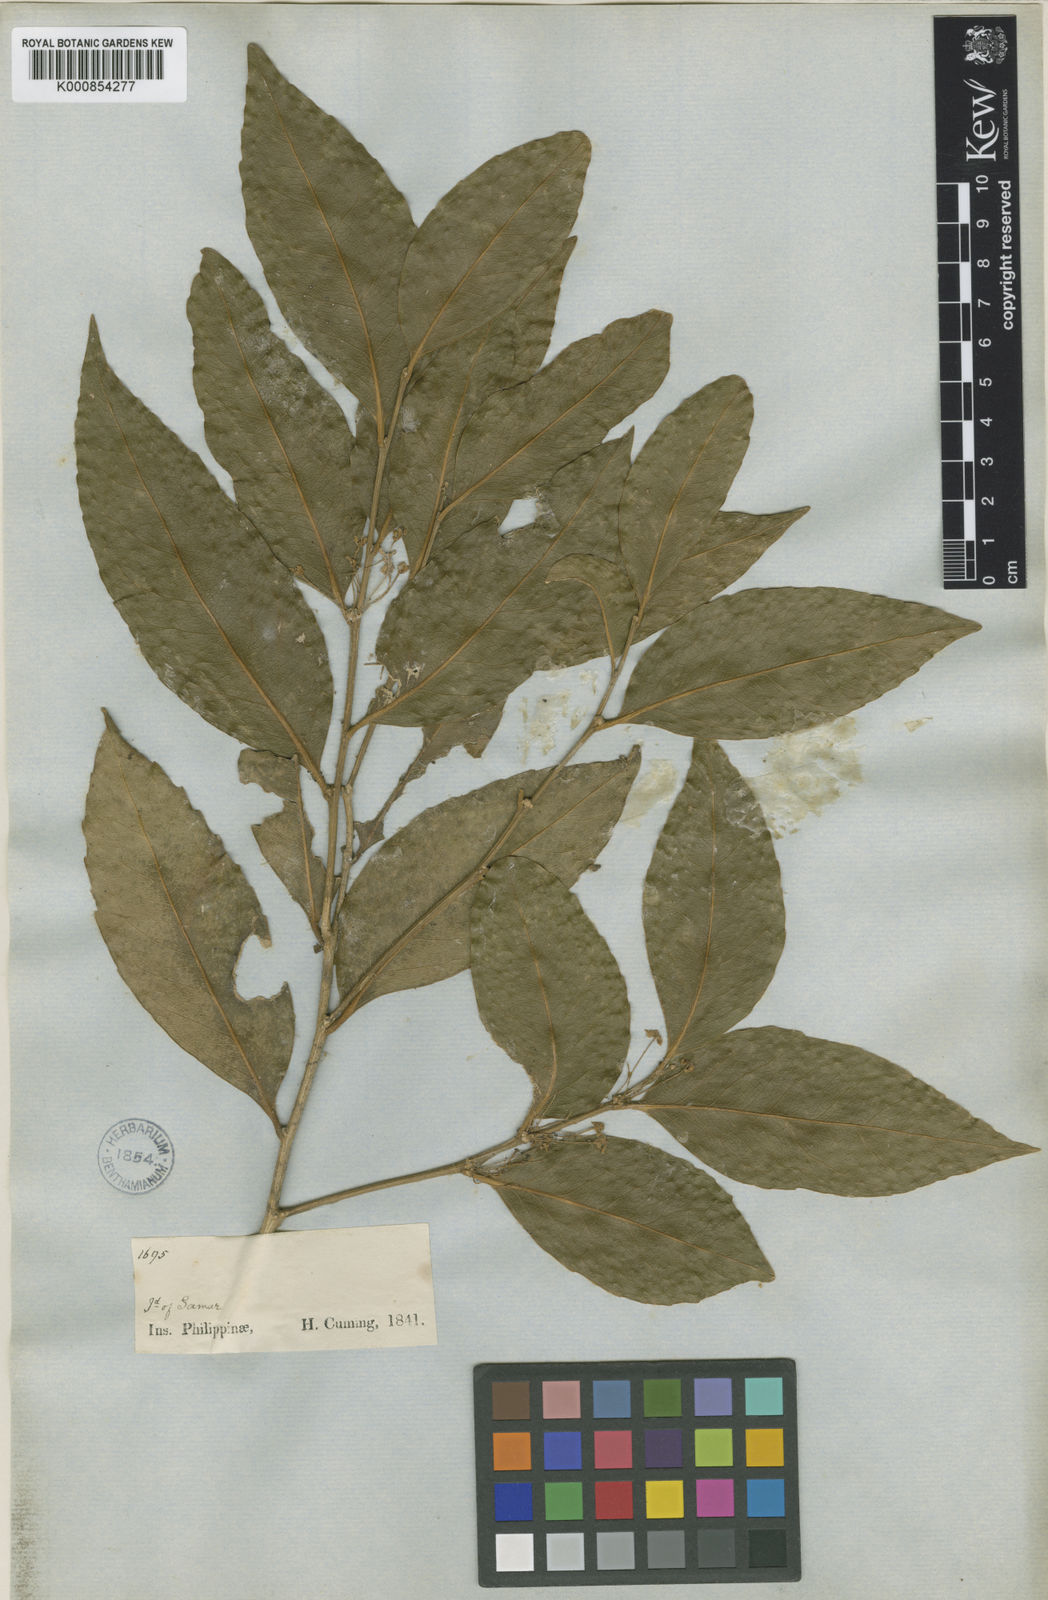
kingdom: Plantae
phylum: Tracheophyta
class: Magnoliopsida
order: Malpighiales
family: Putranjivaceae
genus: Drypetes
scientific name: Drypetes cumingii
